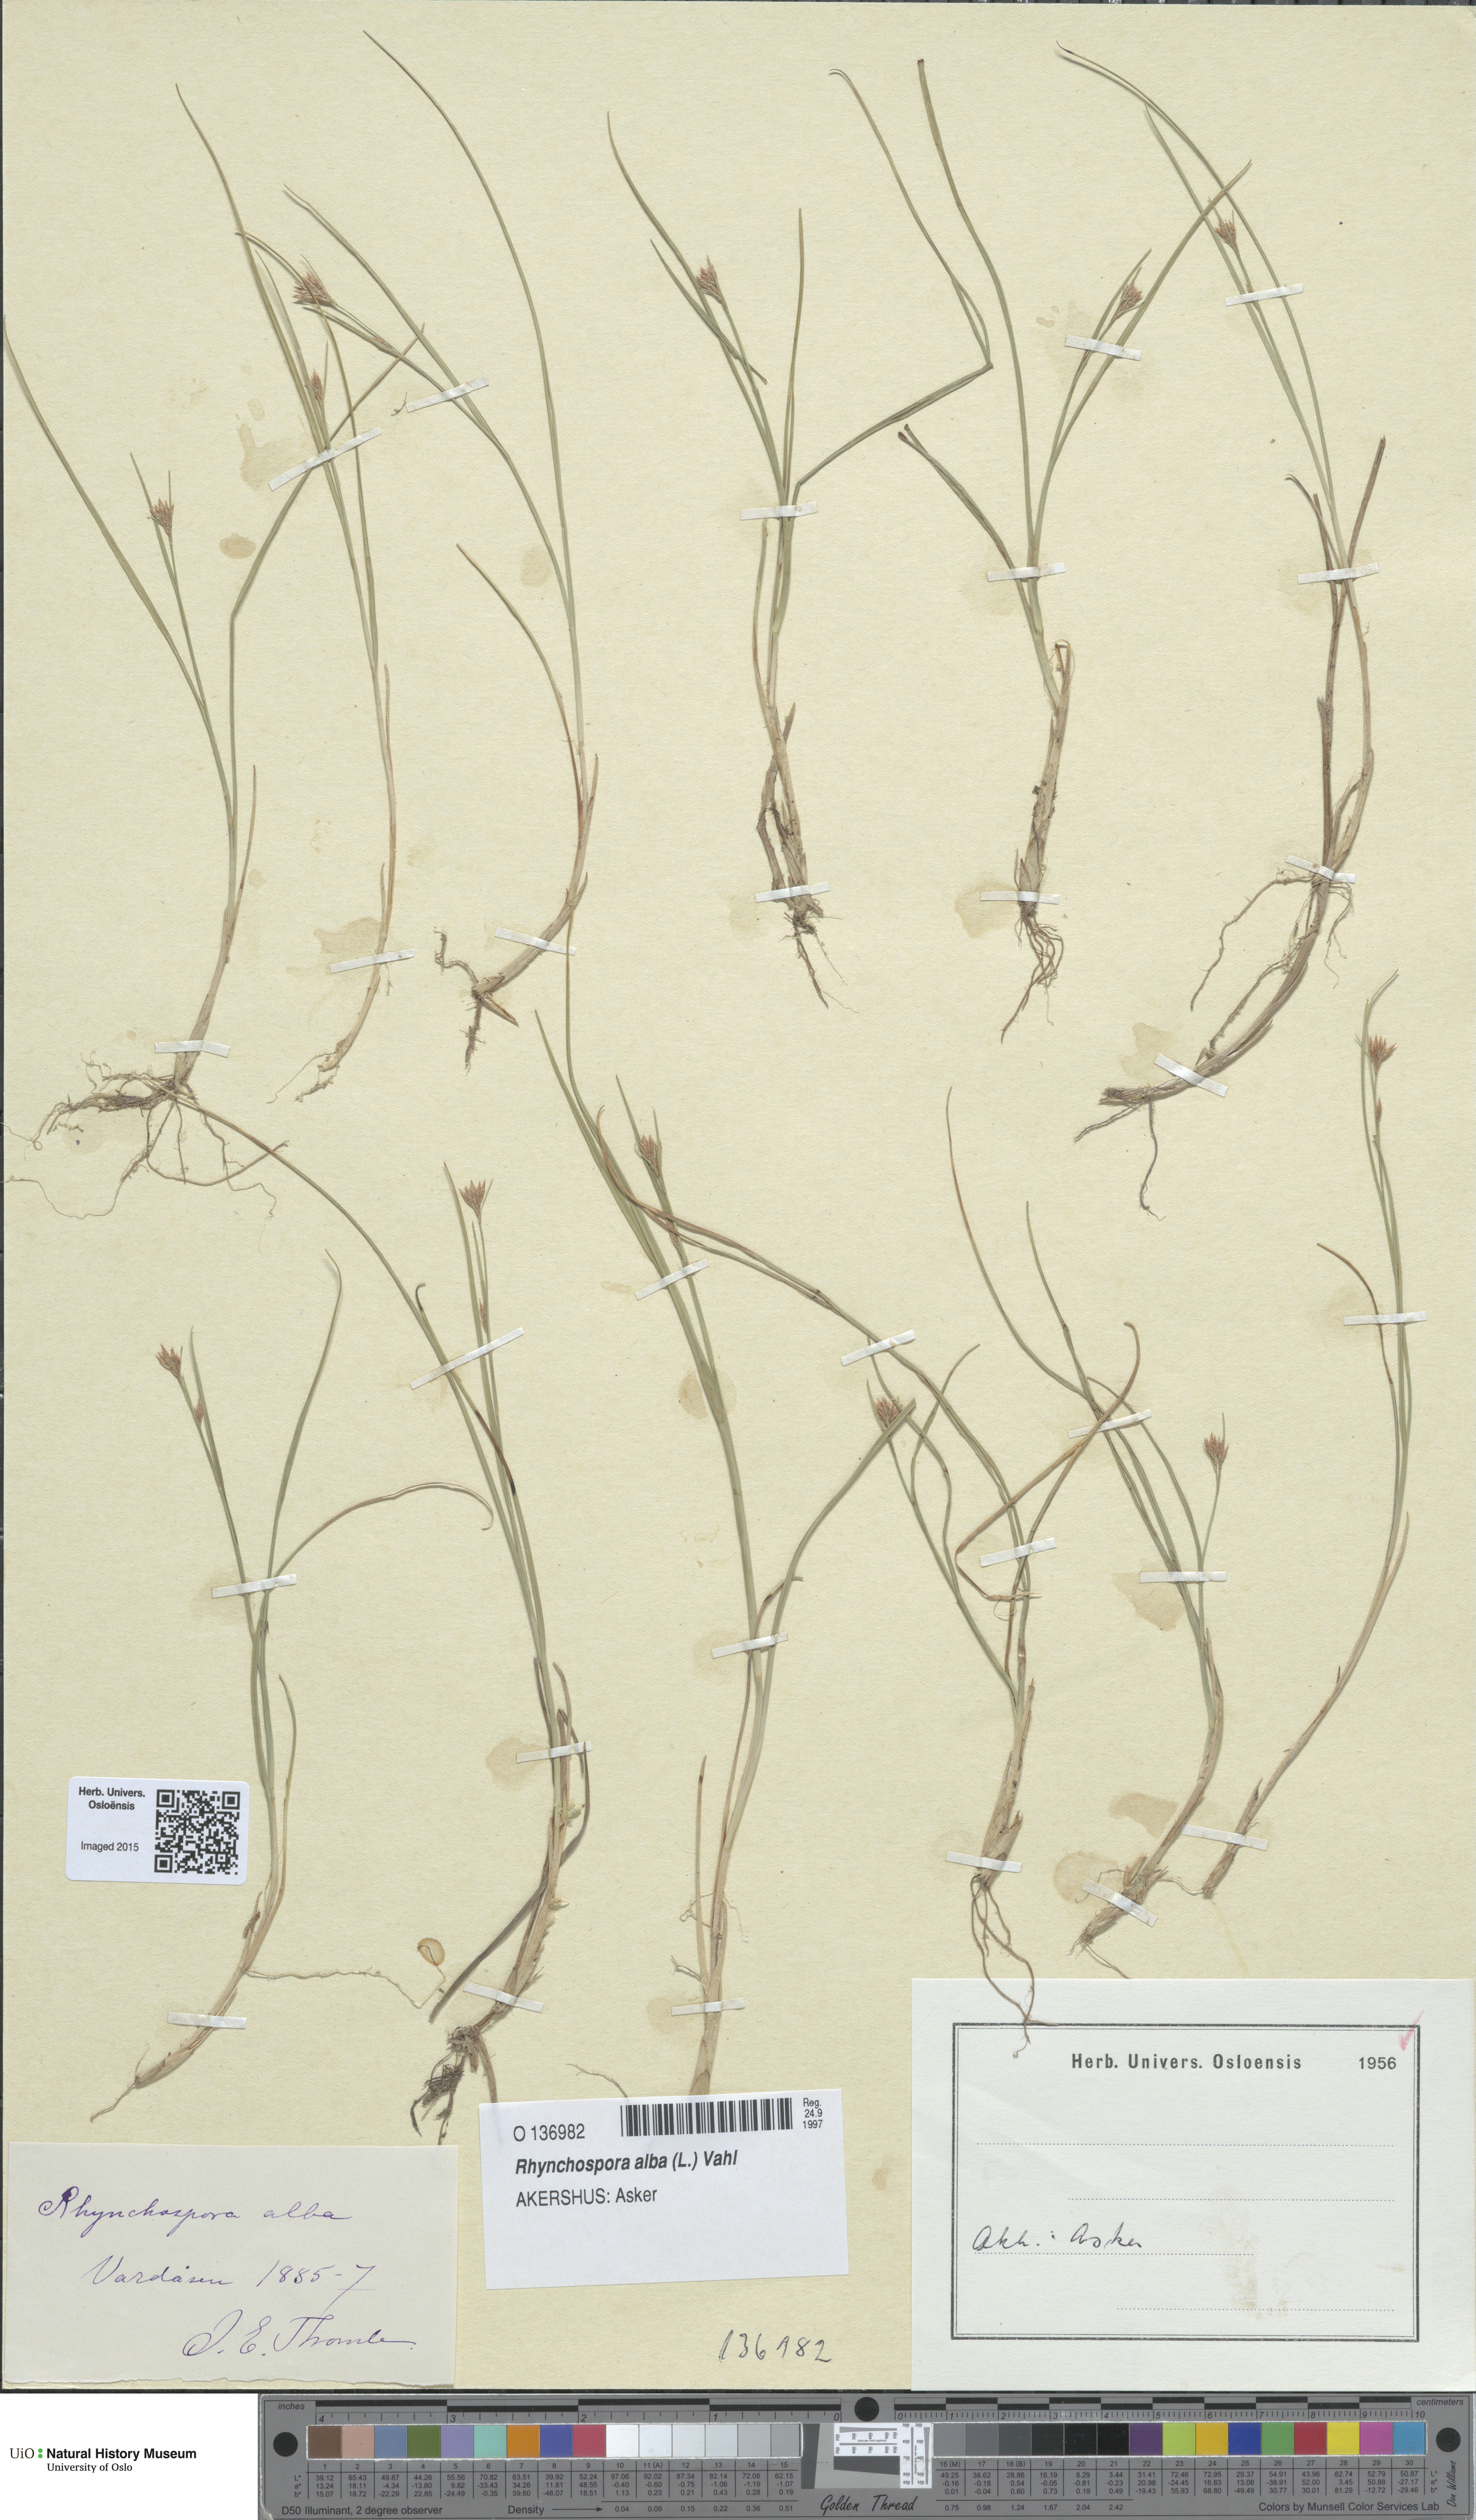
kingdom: Plantae
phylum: Tracheophyta
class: Liliopsida
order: Poales
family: Cyperaceae
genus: Rhynchospora
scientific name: Rhynchospora alba
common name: White beak-sedge
